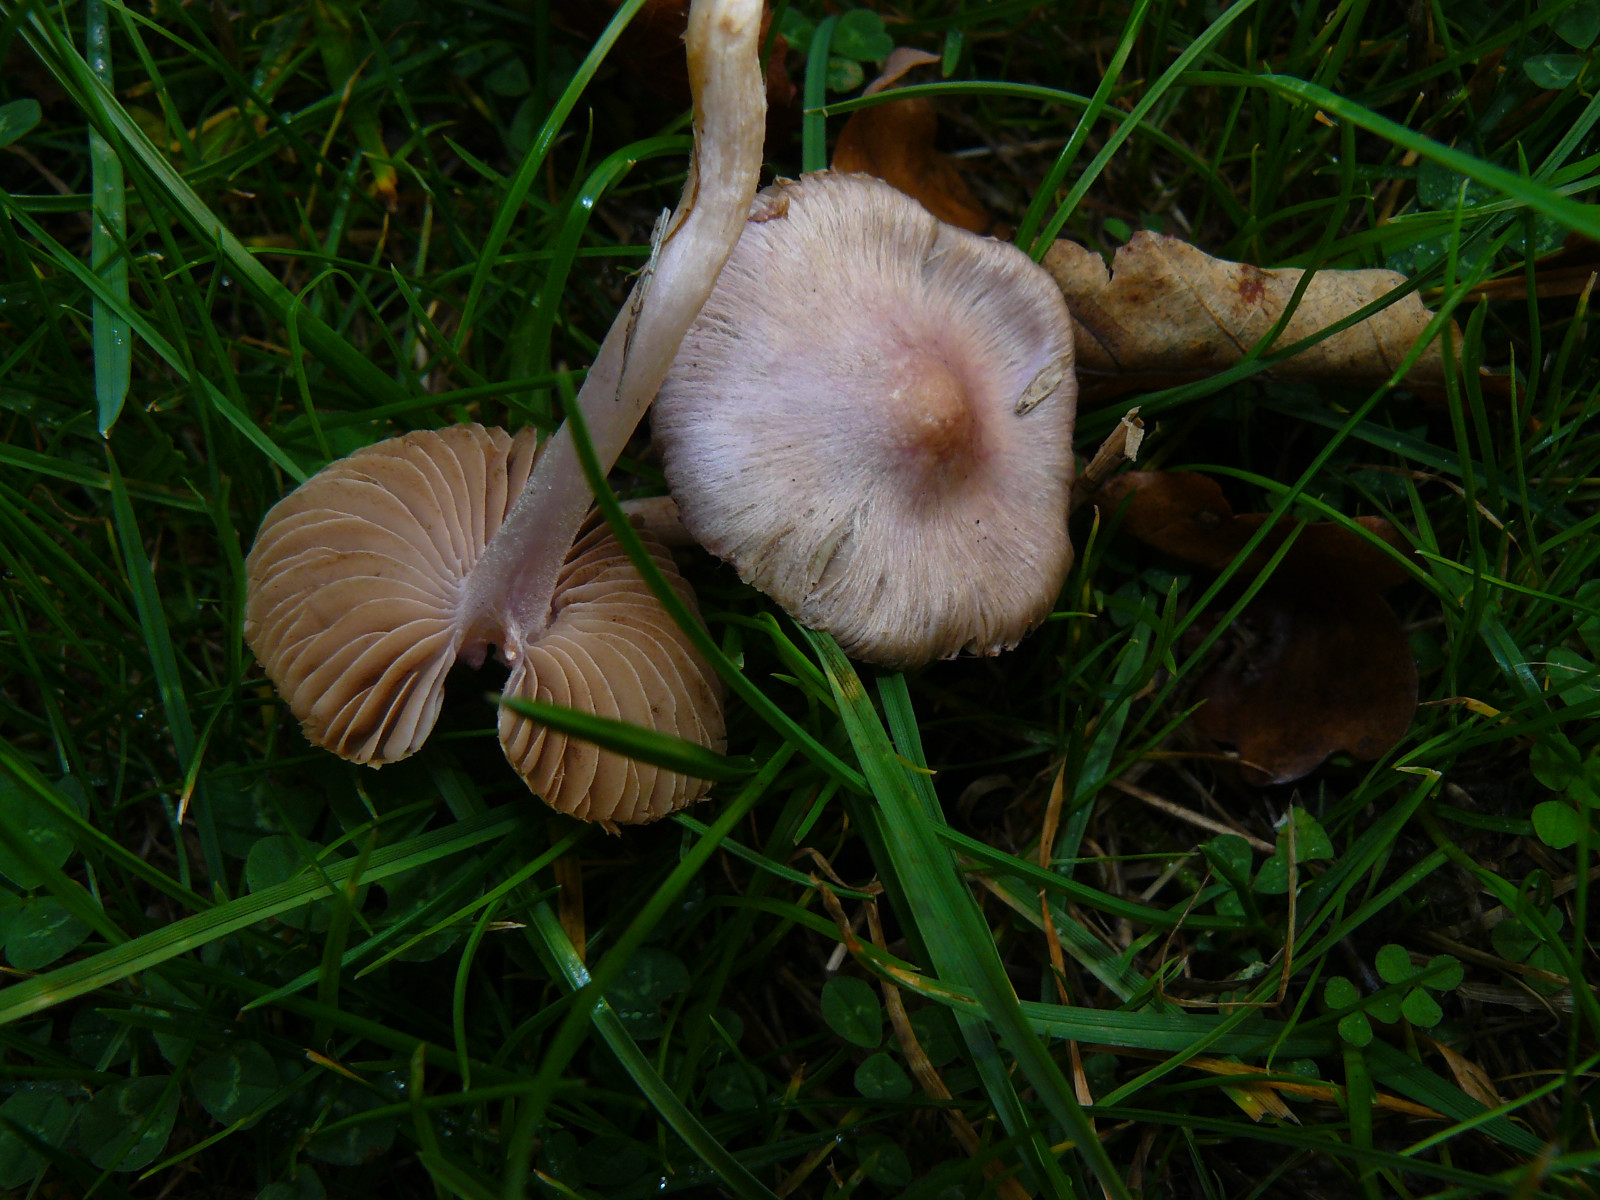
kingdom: Fungi
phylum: Basidiomycota
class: Agaricomycetes
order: Agaricales
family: Inocybaceae
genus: Inocybe
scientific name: Inocybe geophylla
